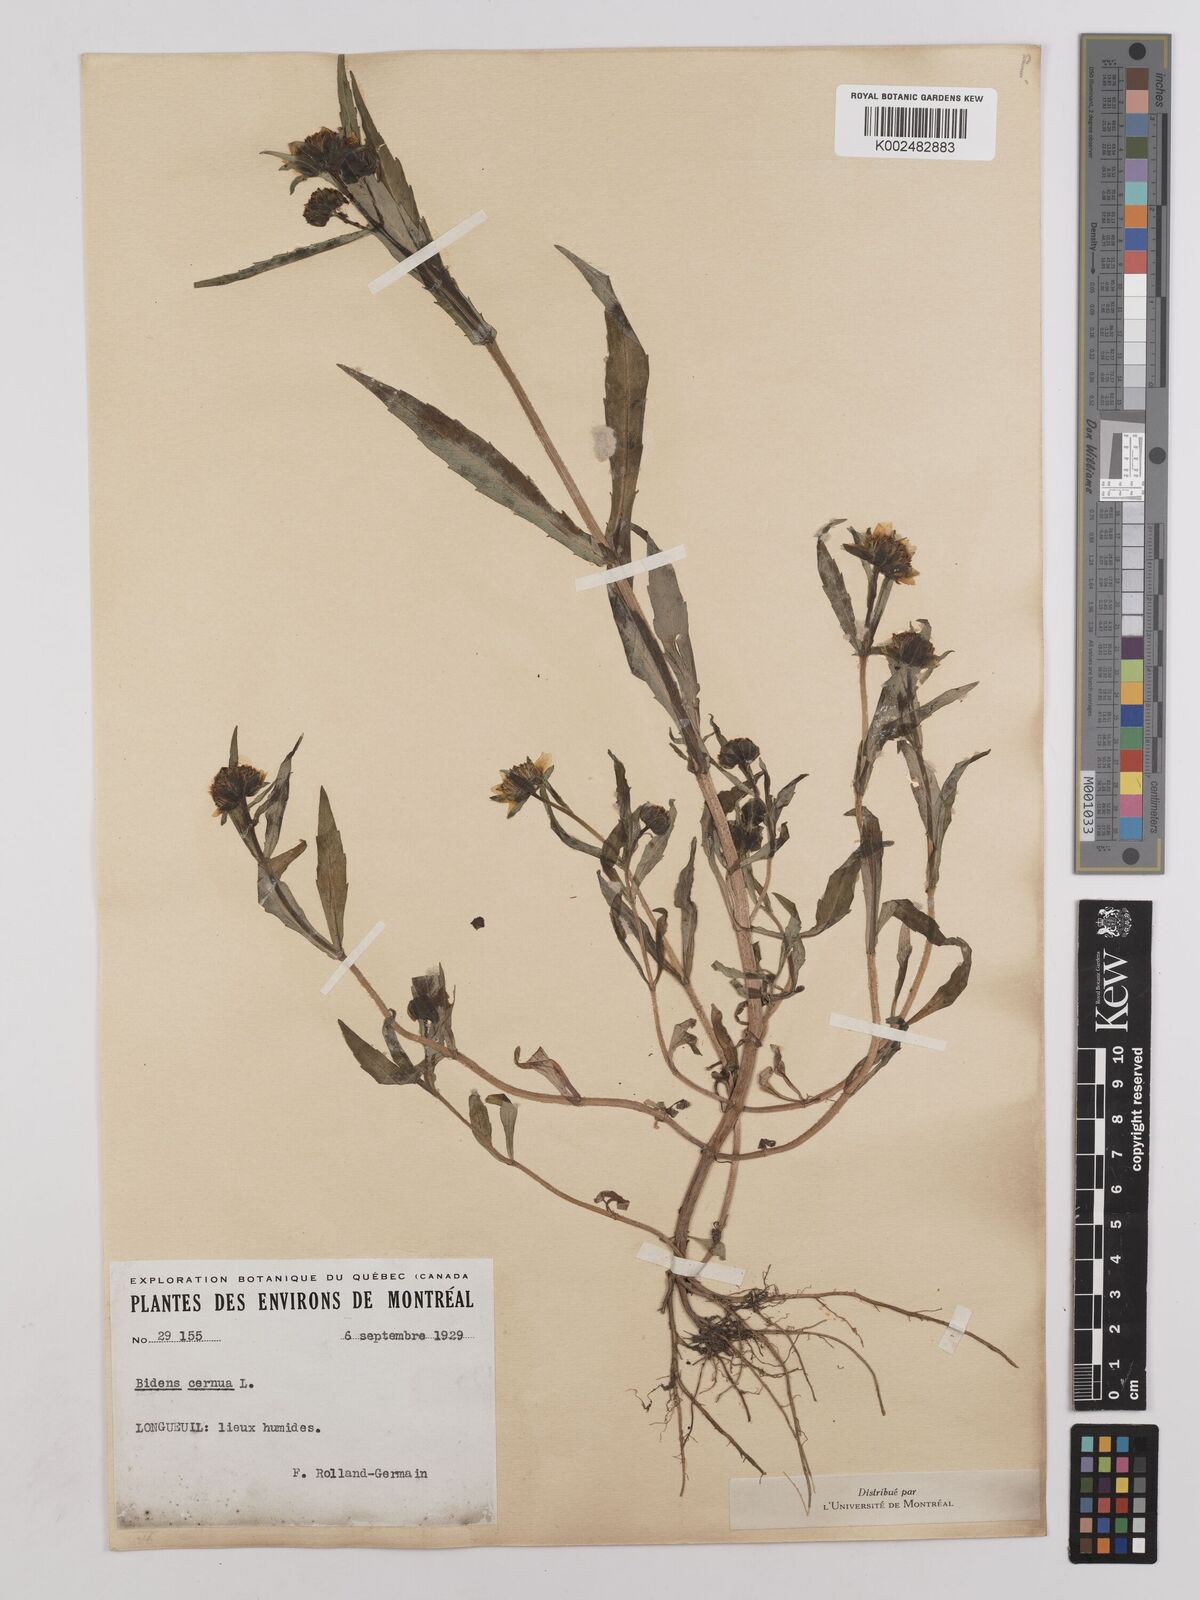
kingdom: Plantae
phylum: Tracheophyta
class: Magnoliopsida
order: Asterales
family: Asteraceae
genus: Bidens
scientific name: Bidens
